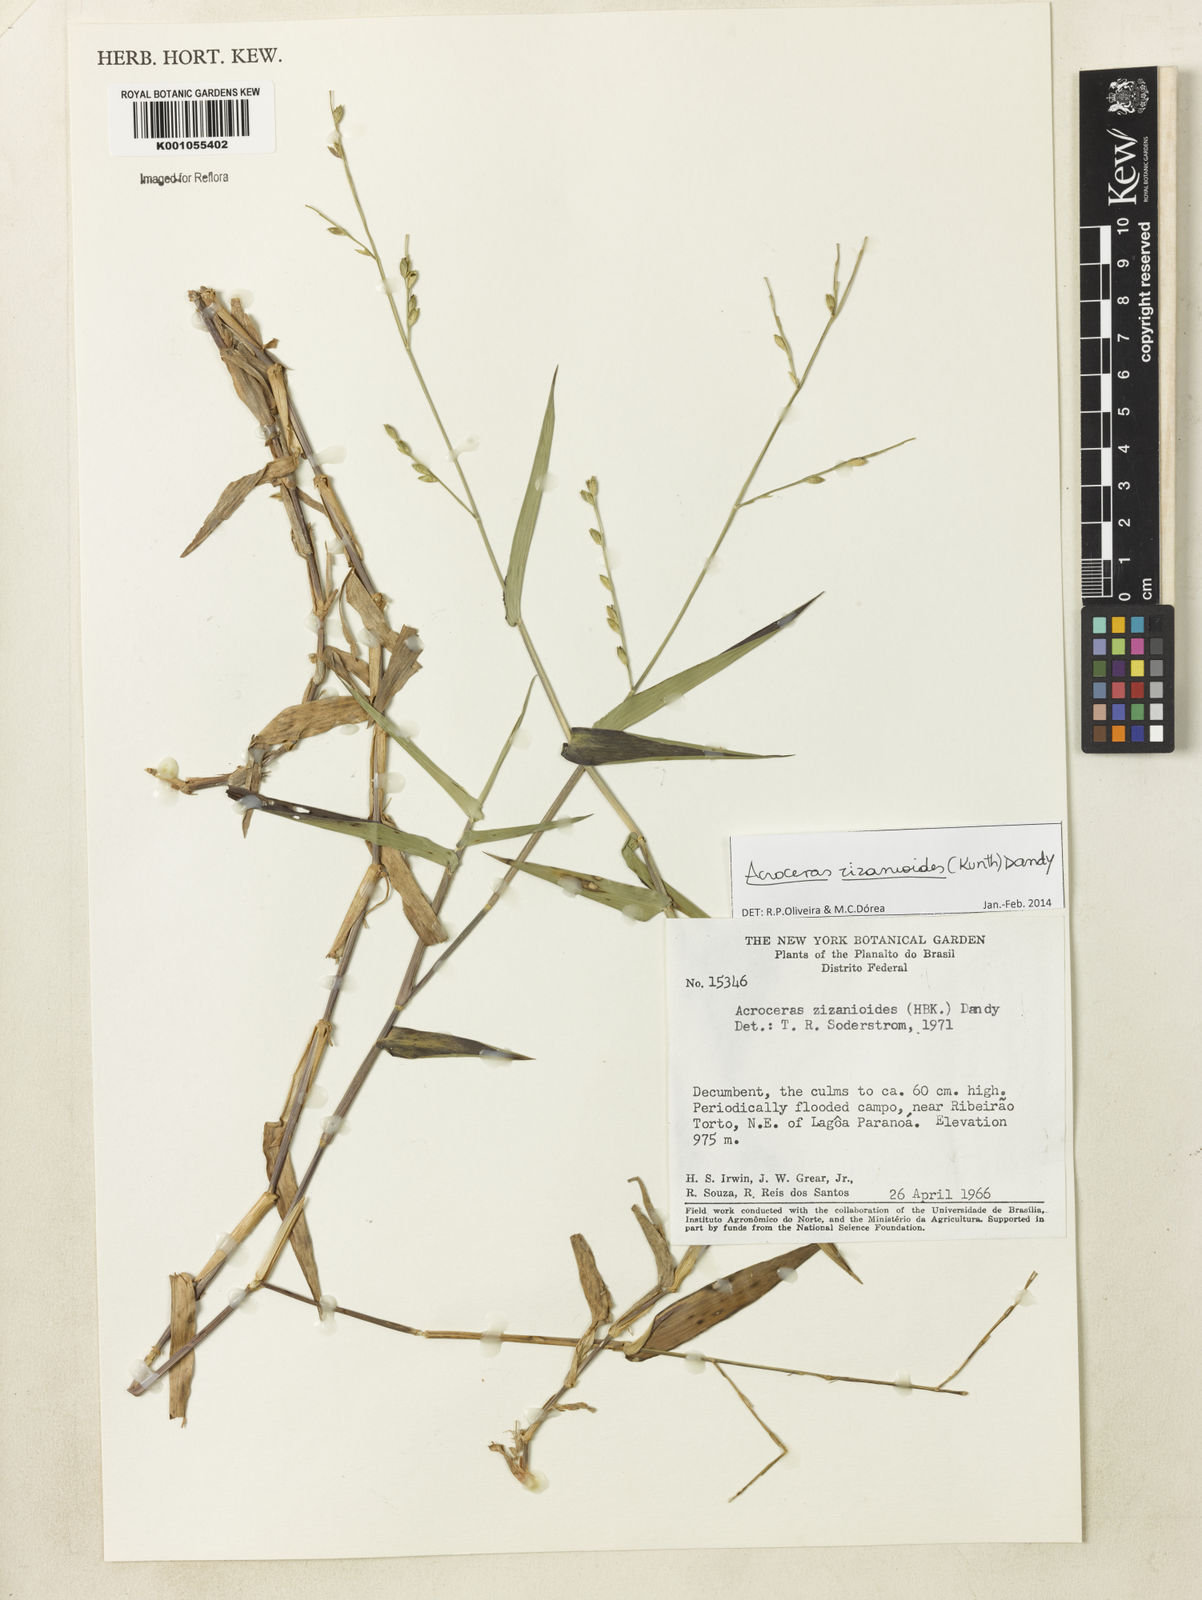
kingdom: Plantae
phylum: Tracheophyta
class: Liliopsida
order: Poales
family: Poaceae
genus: Acroceras
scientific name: Acroceras zizanioides
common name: Oat grass
